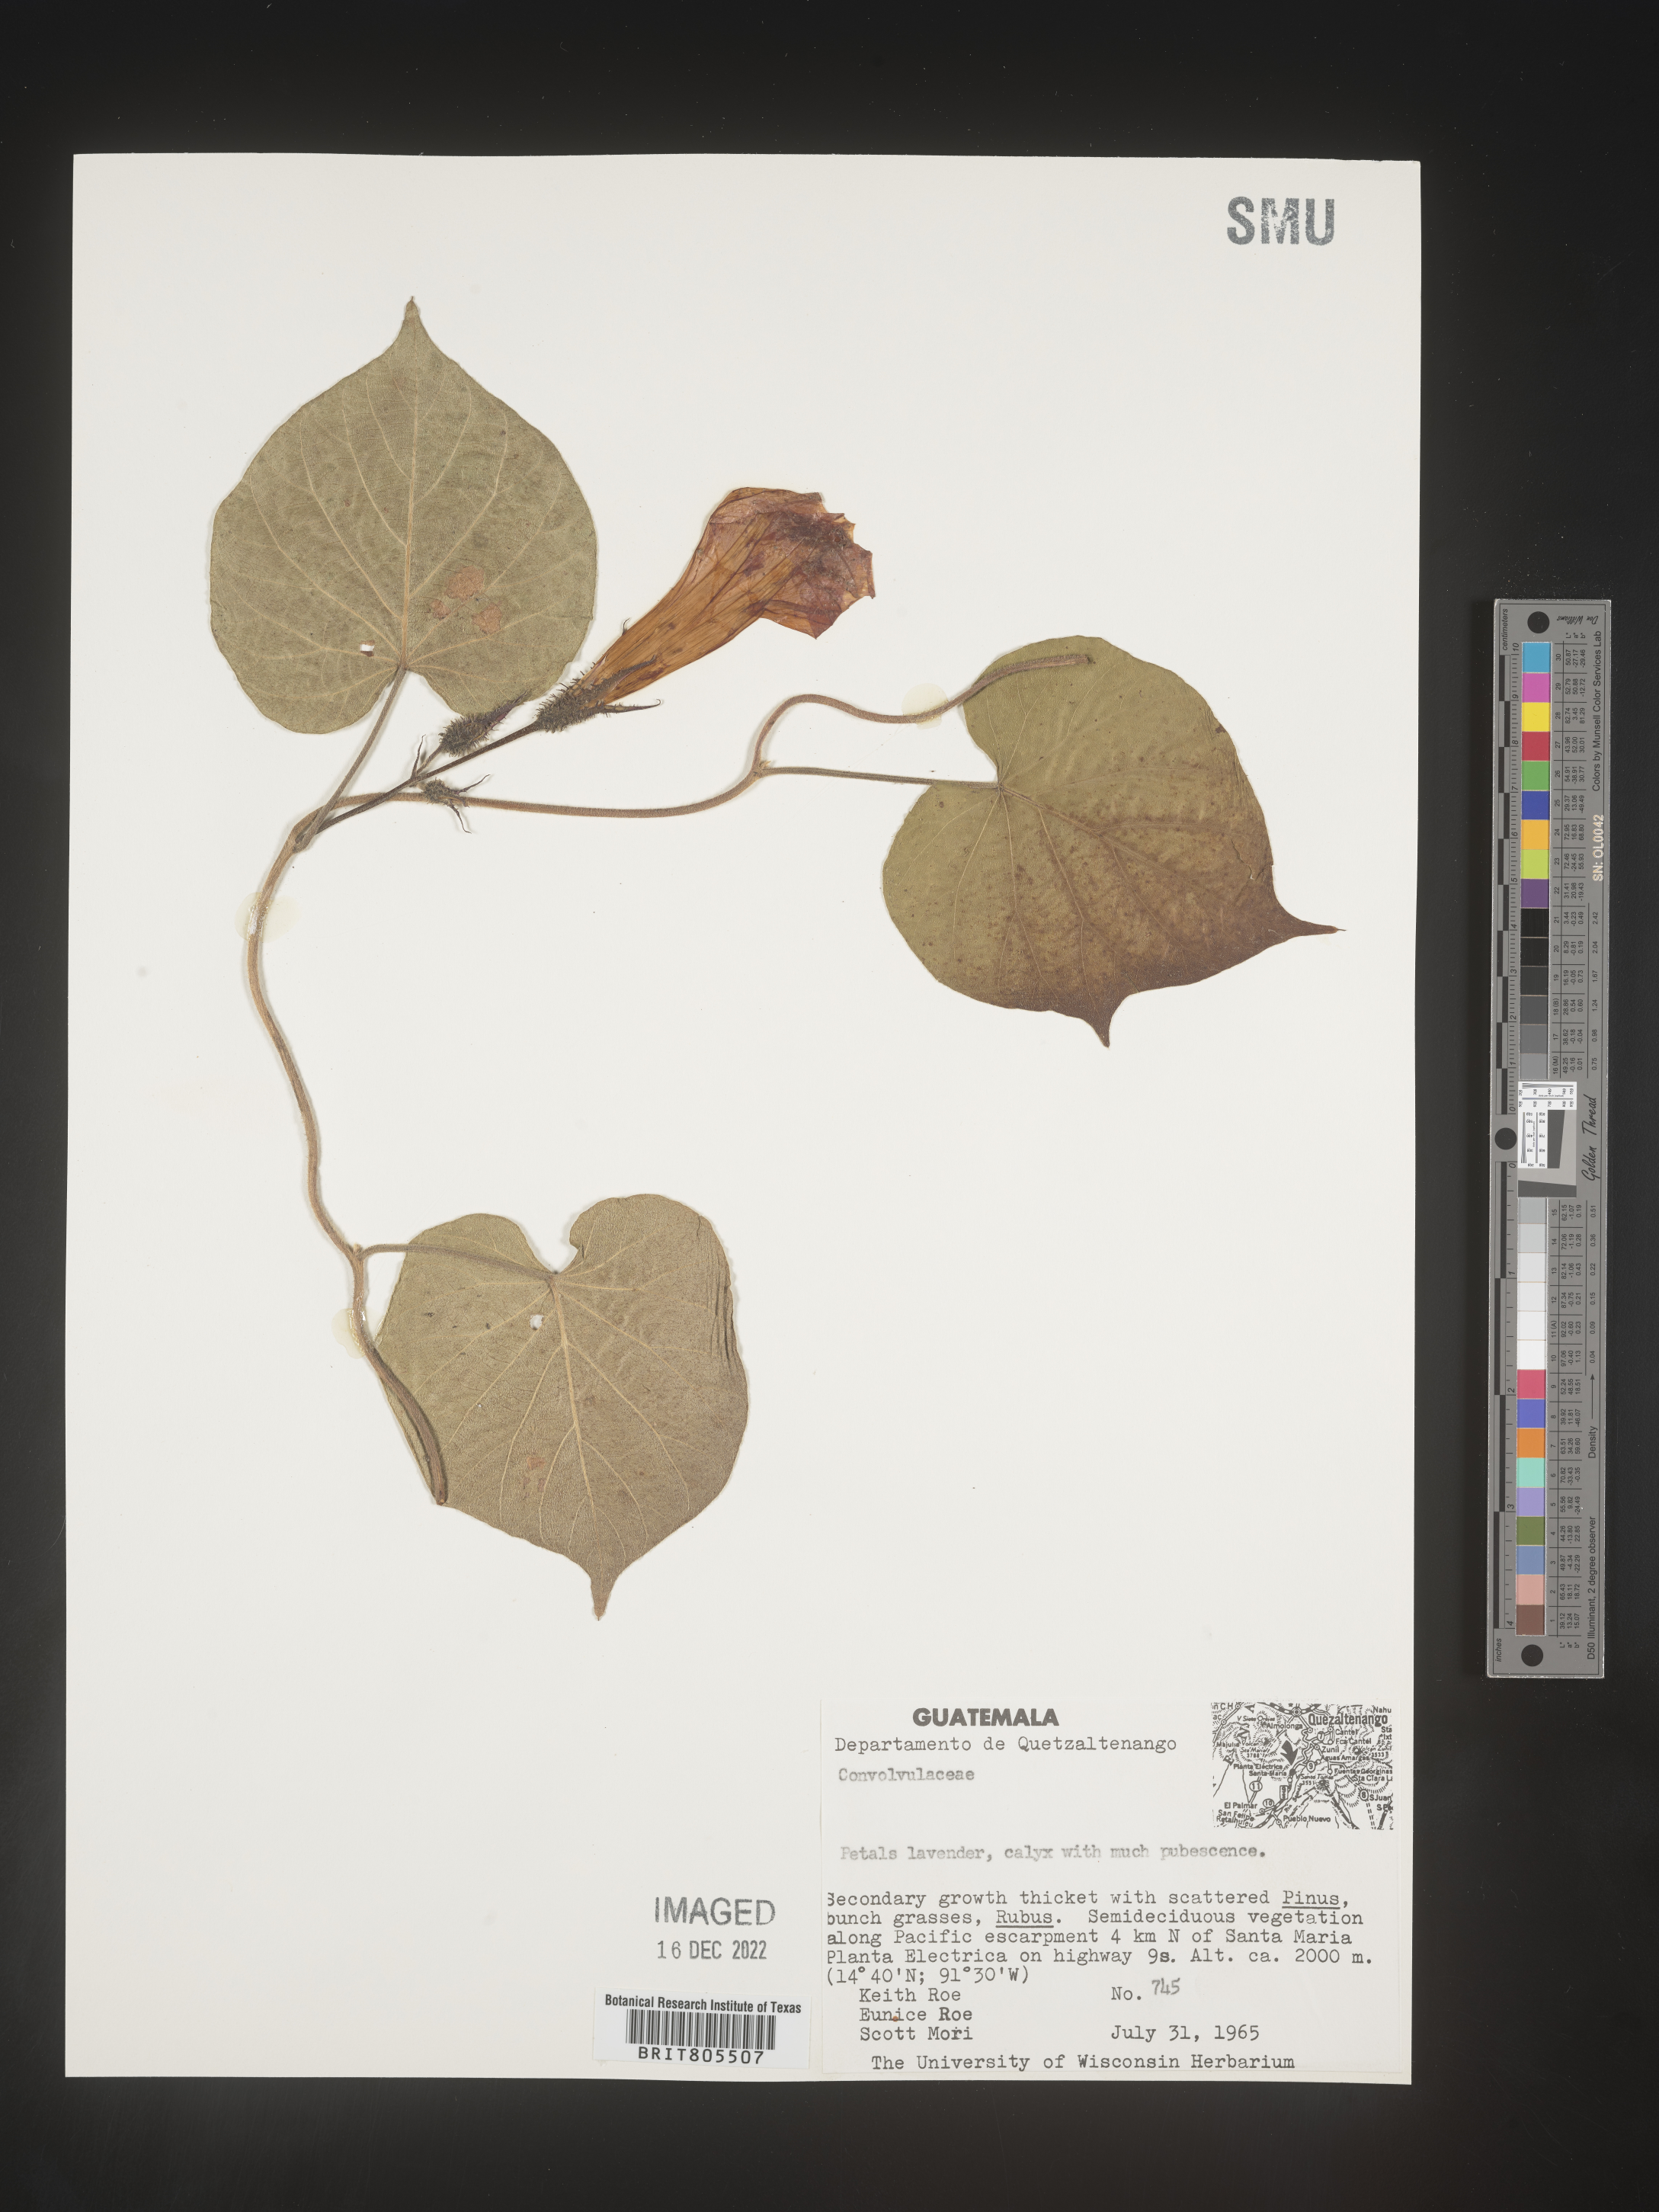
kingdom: Plantae
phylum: Tracheophyta
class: Magnoliopsida
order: Solanales
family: Convolvulaceae
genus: Ipomoea
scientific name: Ipomoea
